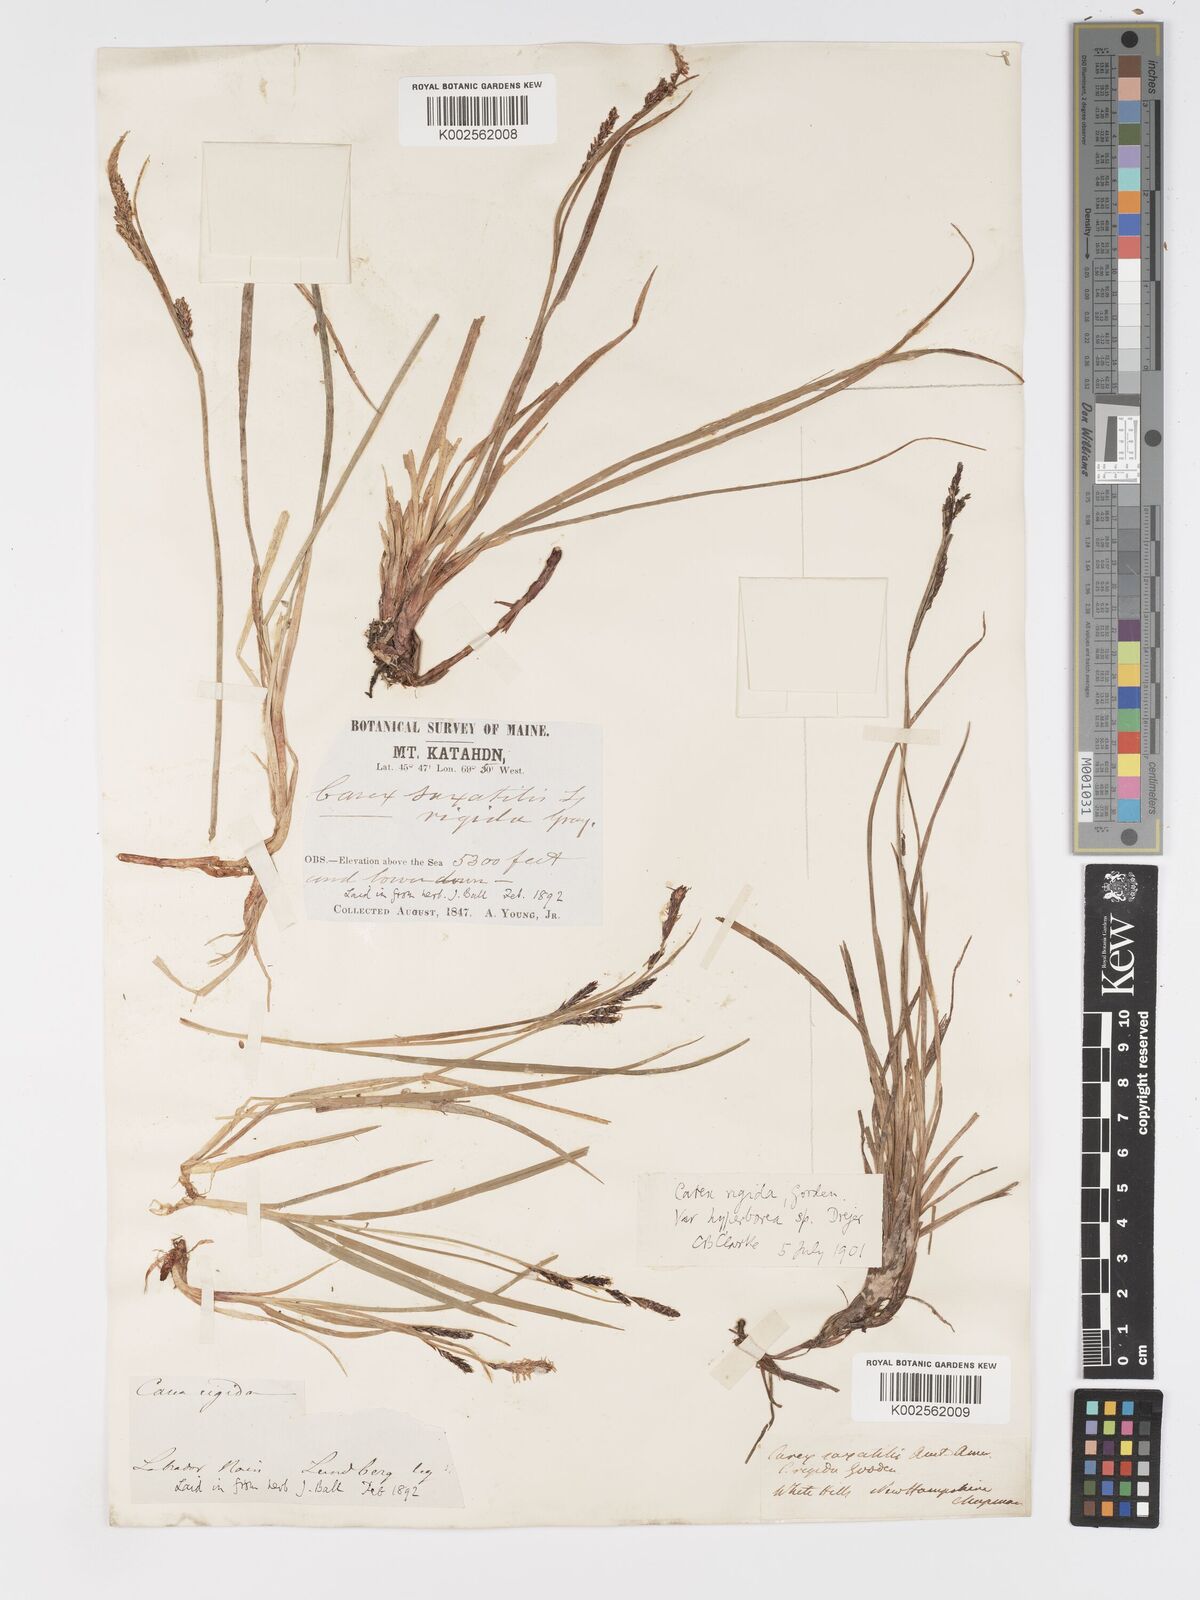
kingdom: Plantae
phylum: Tracheophyta
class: Liliopsida
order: Poales
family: Cyperaceae
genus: Carex
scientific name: Carex bigelowii
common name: Stiff sedge
